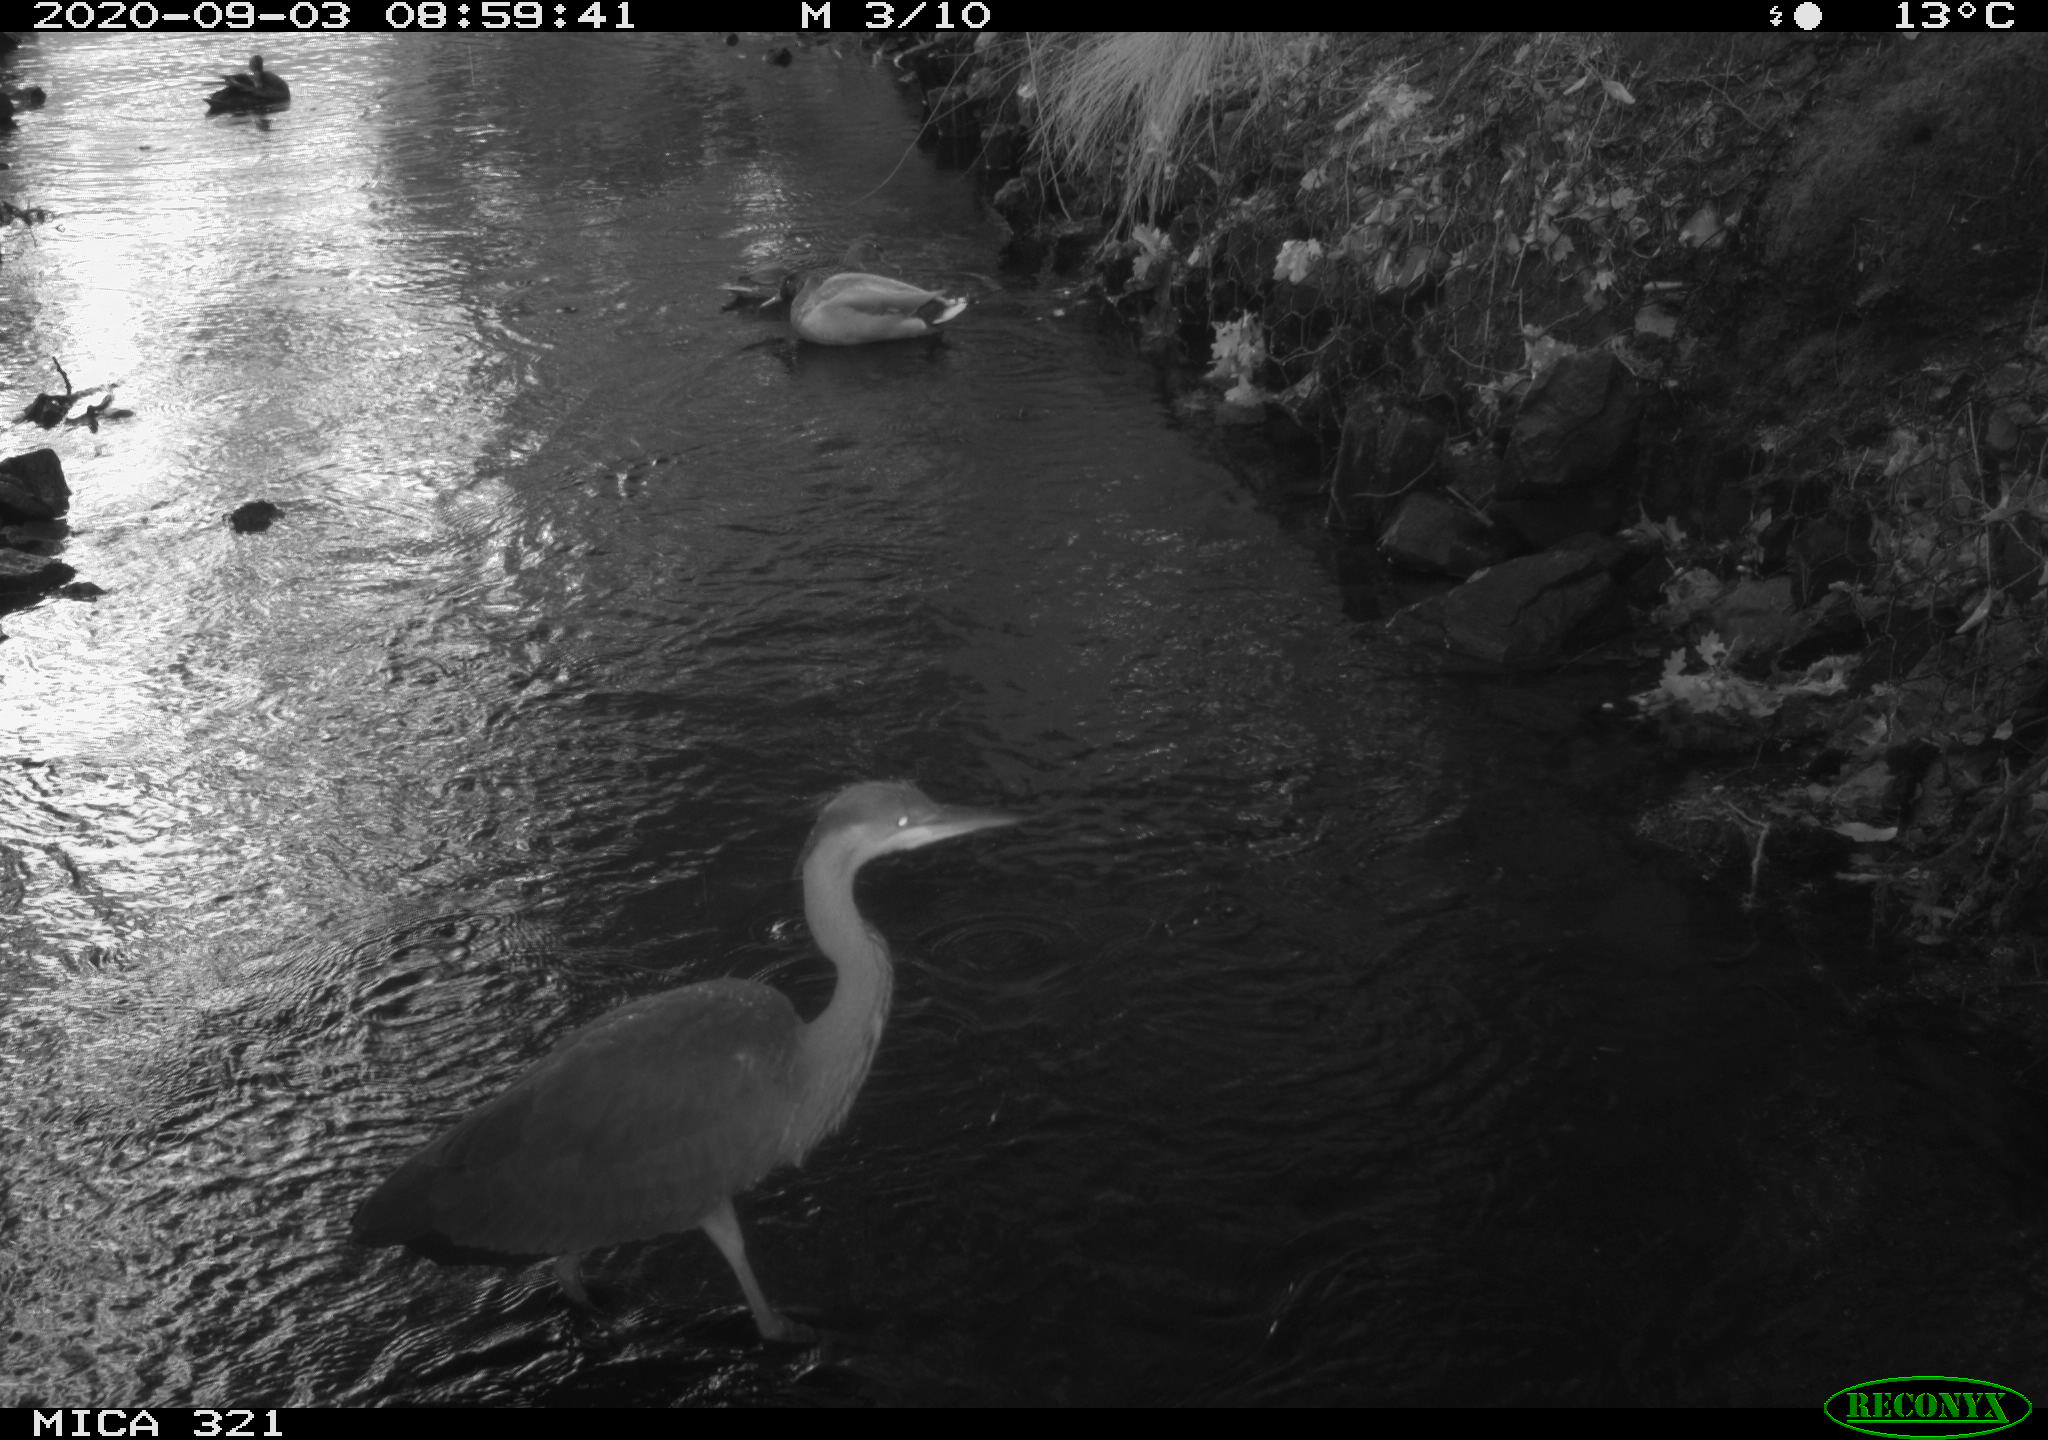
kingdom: Animalia
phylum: Chordata
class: Aves
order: Pelecaniformes
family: Ardeidae
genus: Ardea
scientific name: Ardea cinerea
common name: Grey heron
